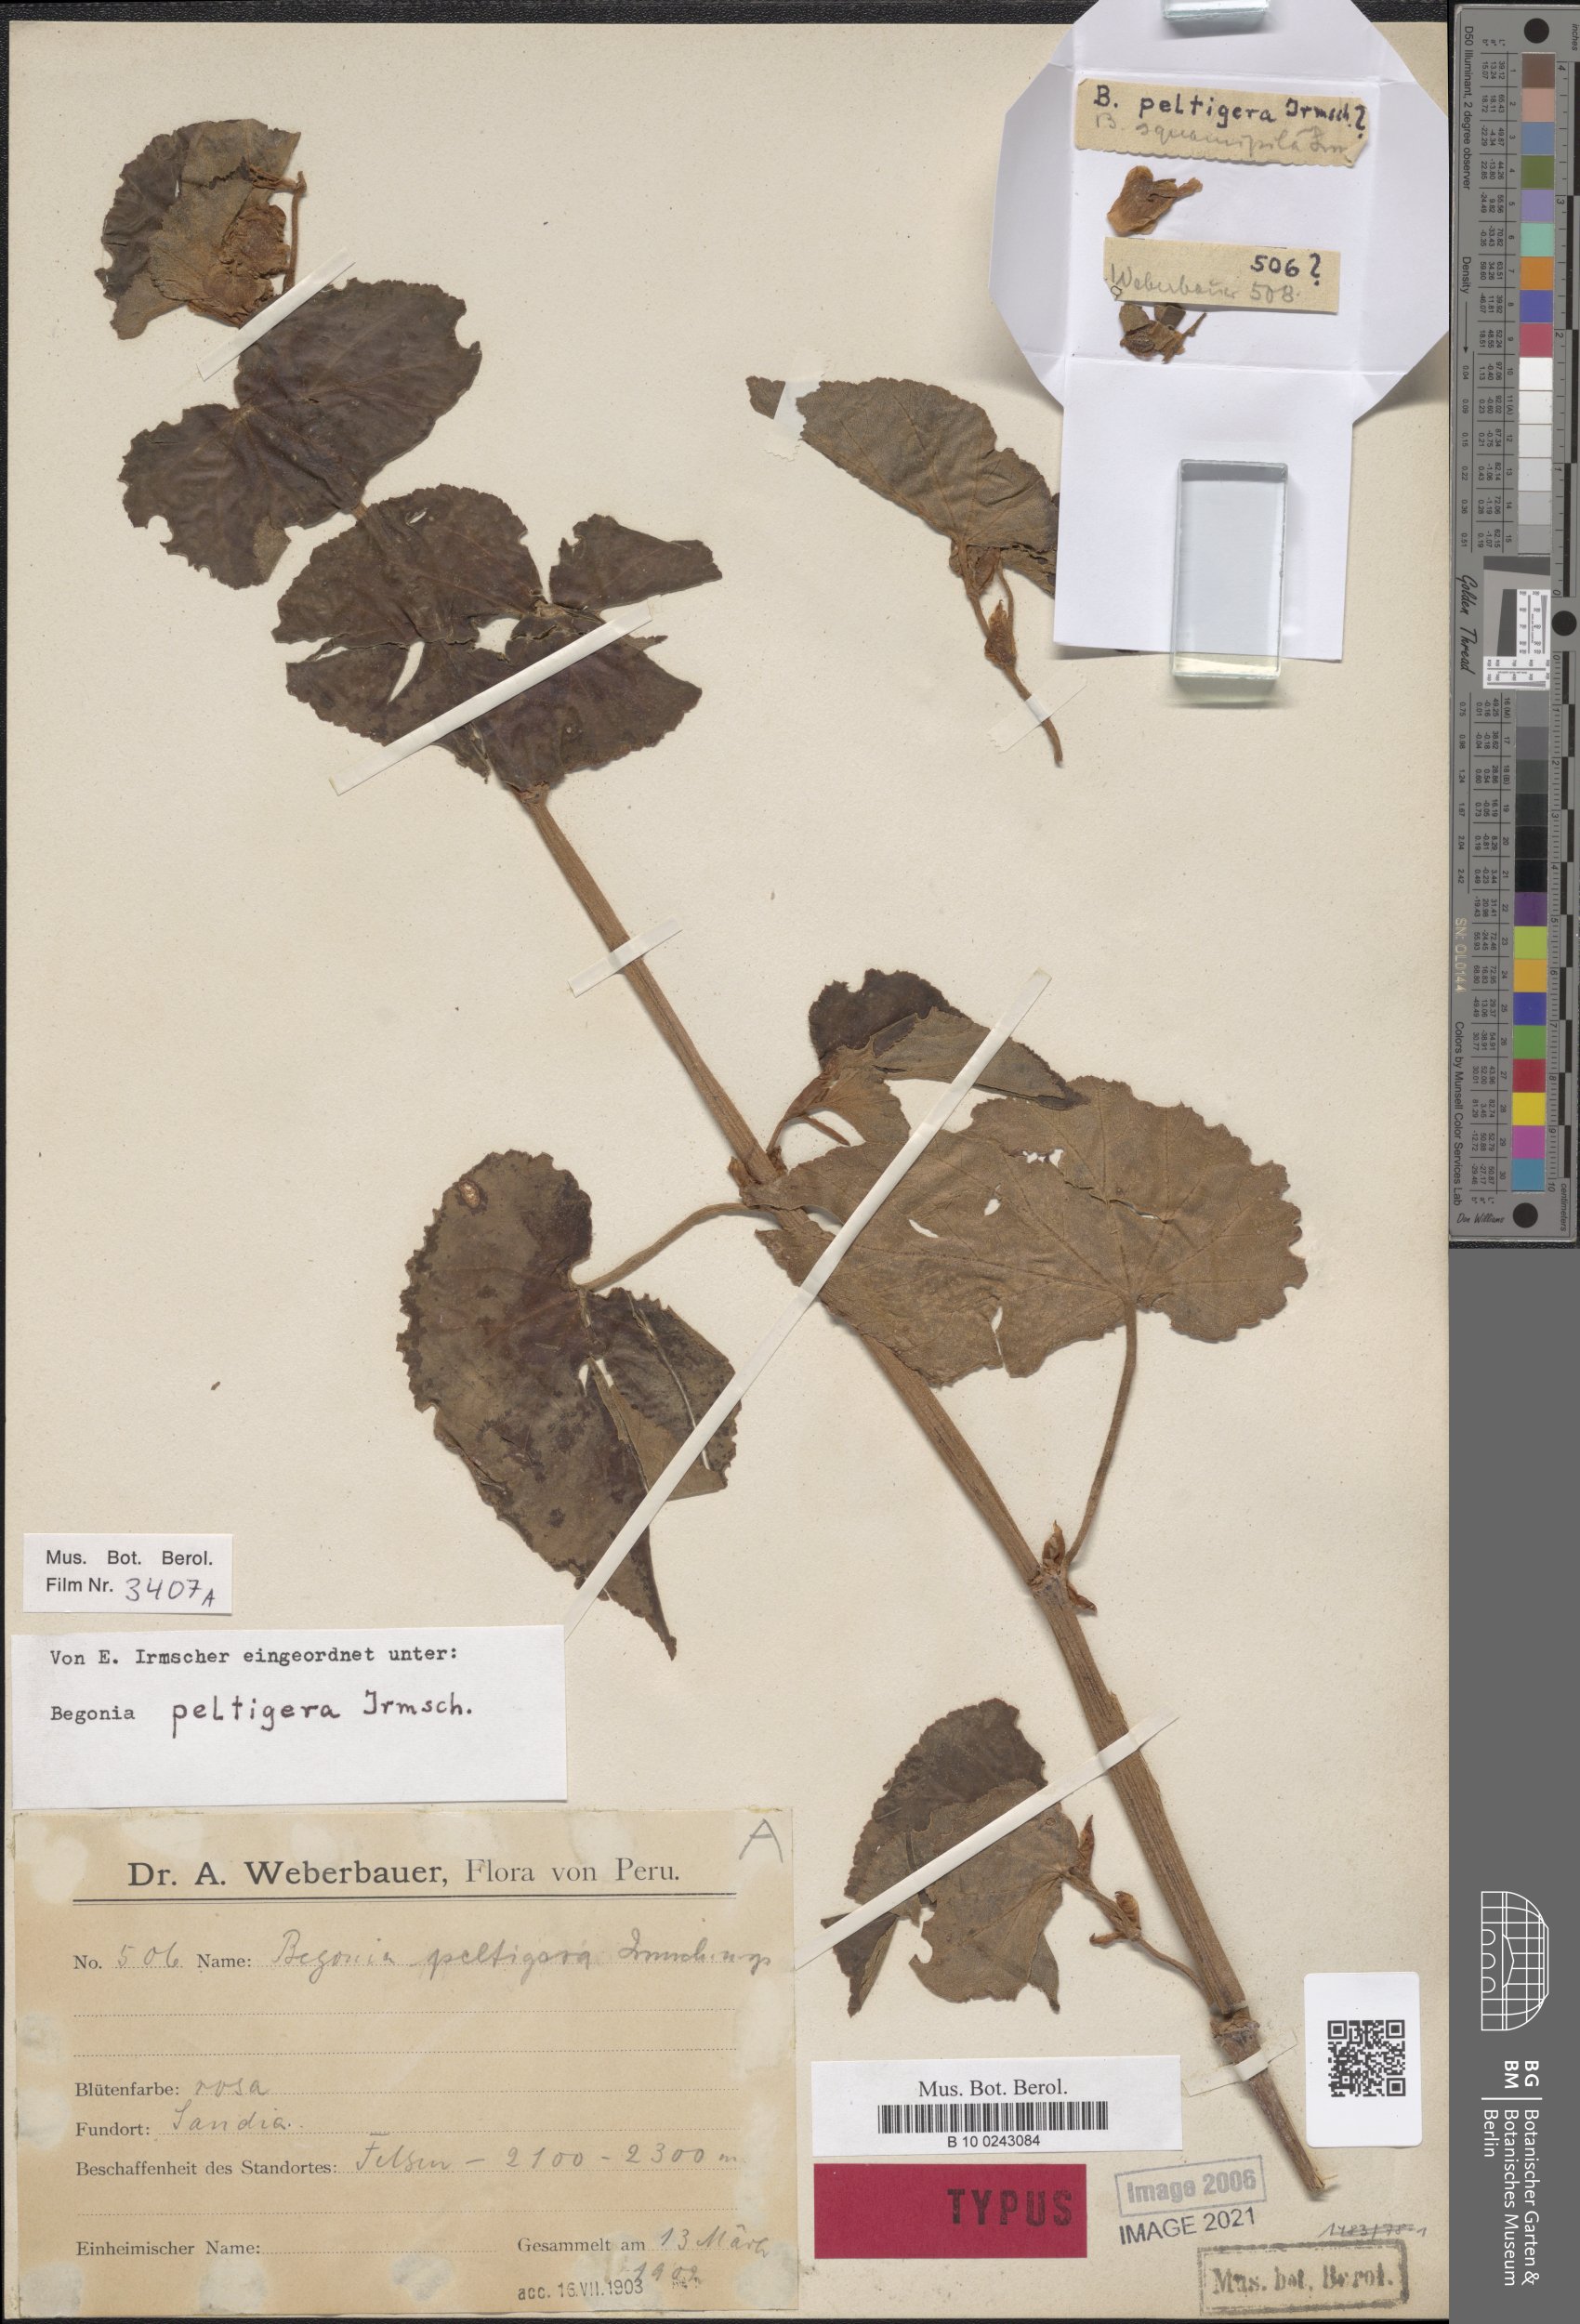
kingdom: Plantae
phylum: Tracheophyta
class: Magnoliopsida
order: Cucurbitales
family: Begoniaceae
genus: Begonia
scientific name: Begonia peltigera
